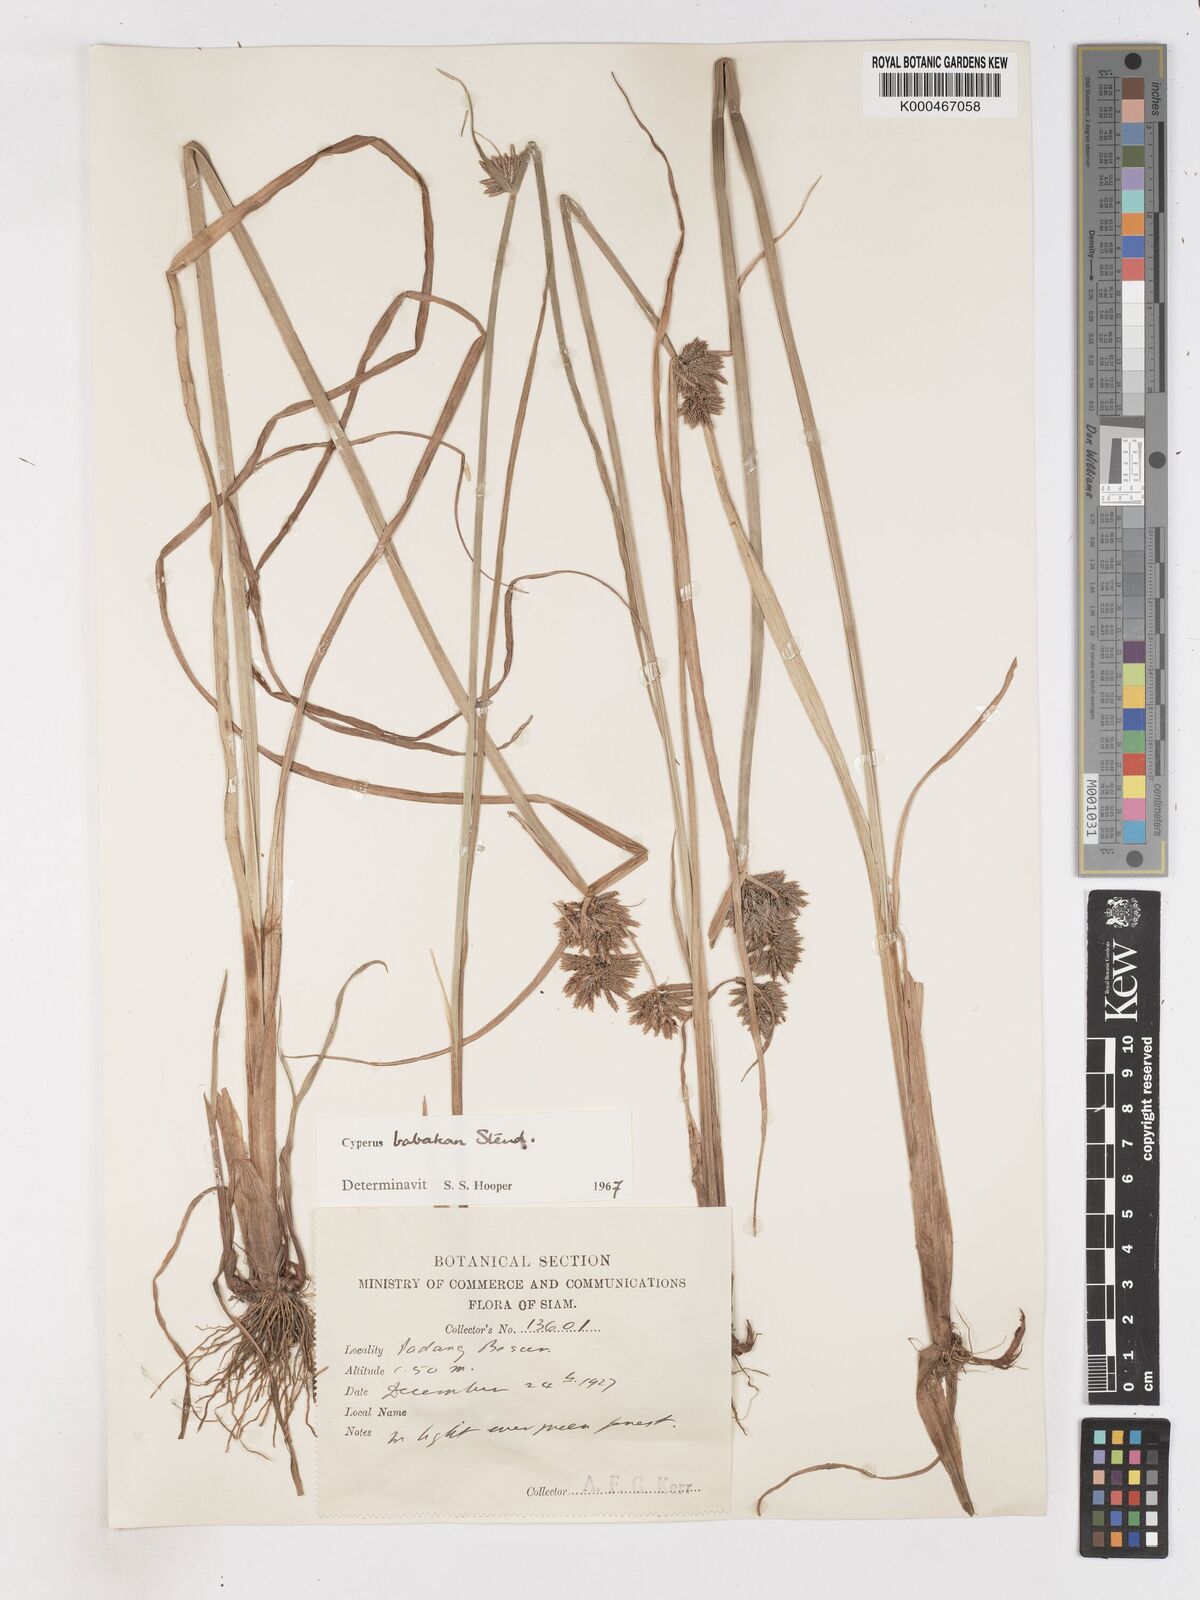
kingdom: Plantae
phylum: Tracheophyta
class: Liliopsida
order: Poales
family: Cyperaceae
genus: Cyperus
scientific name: Cyperus babakan
